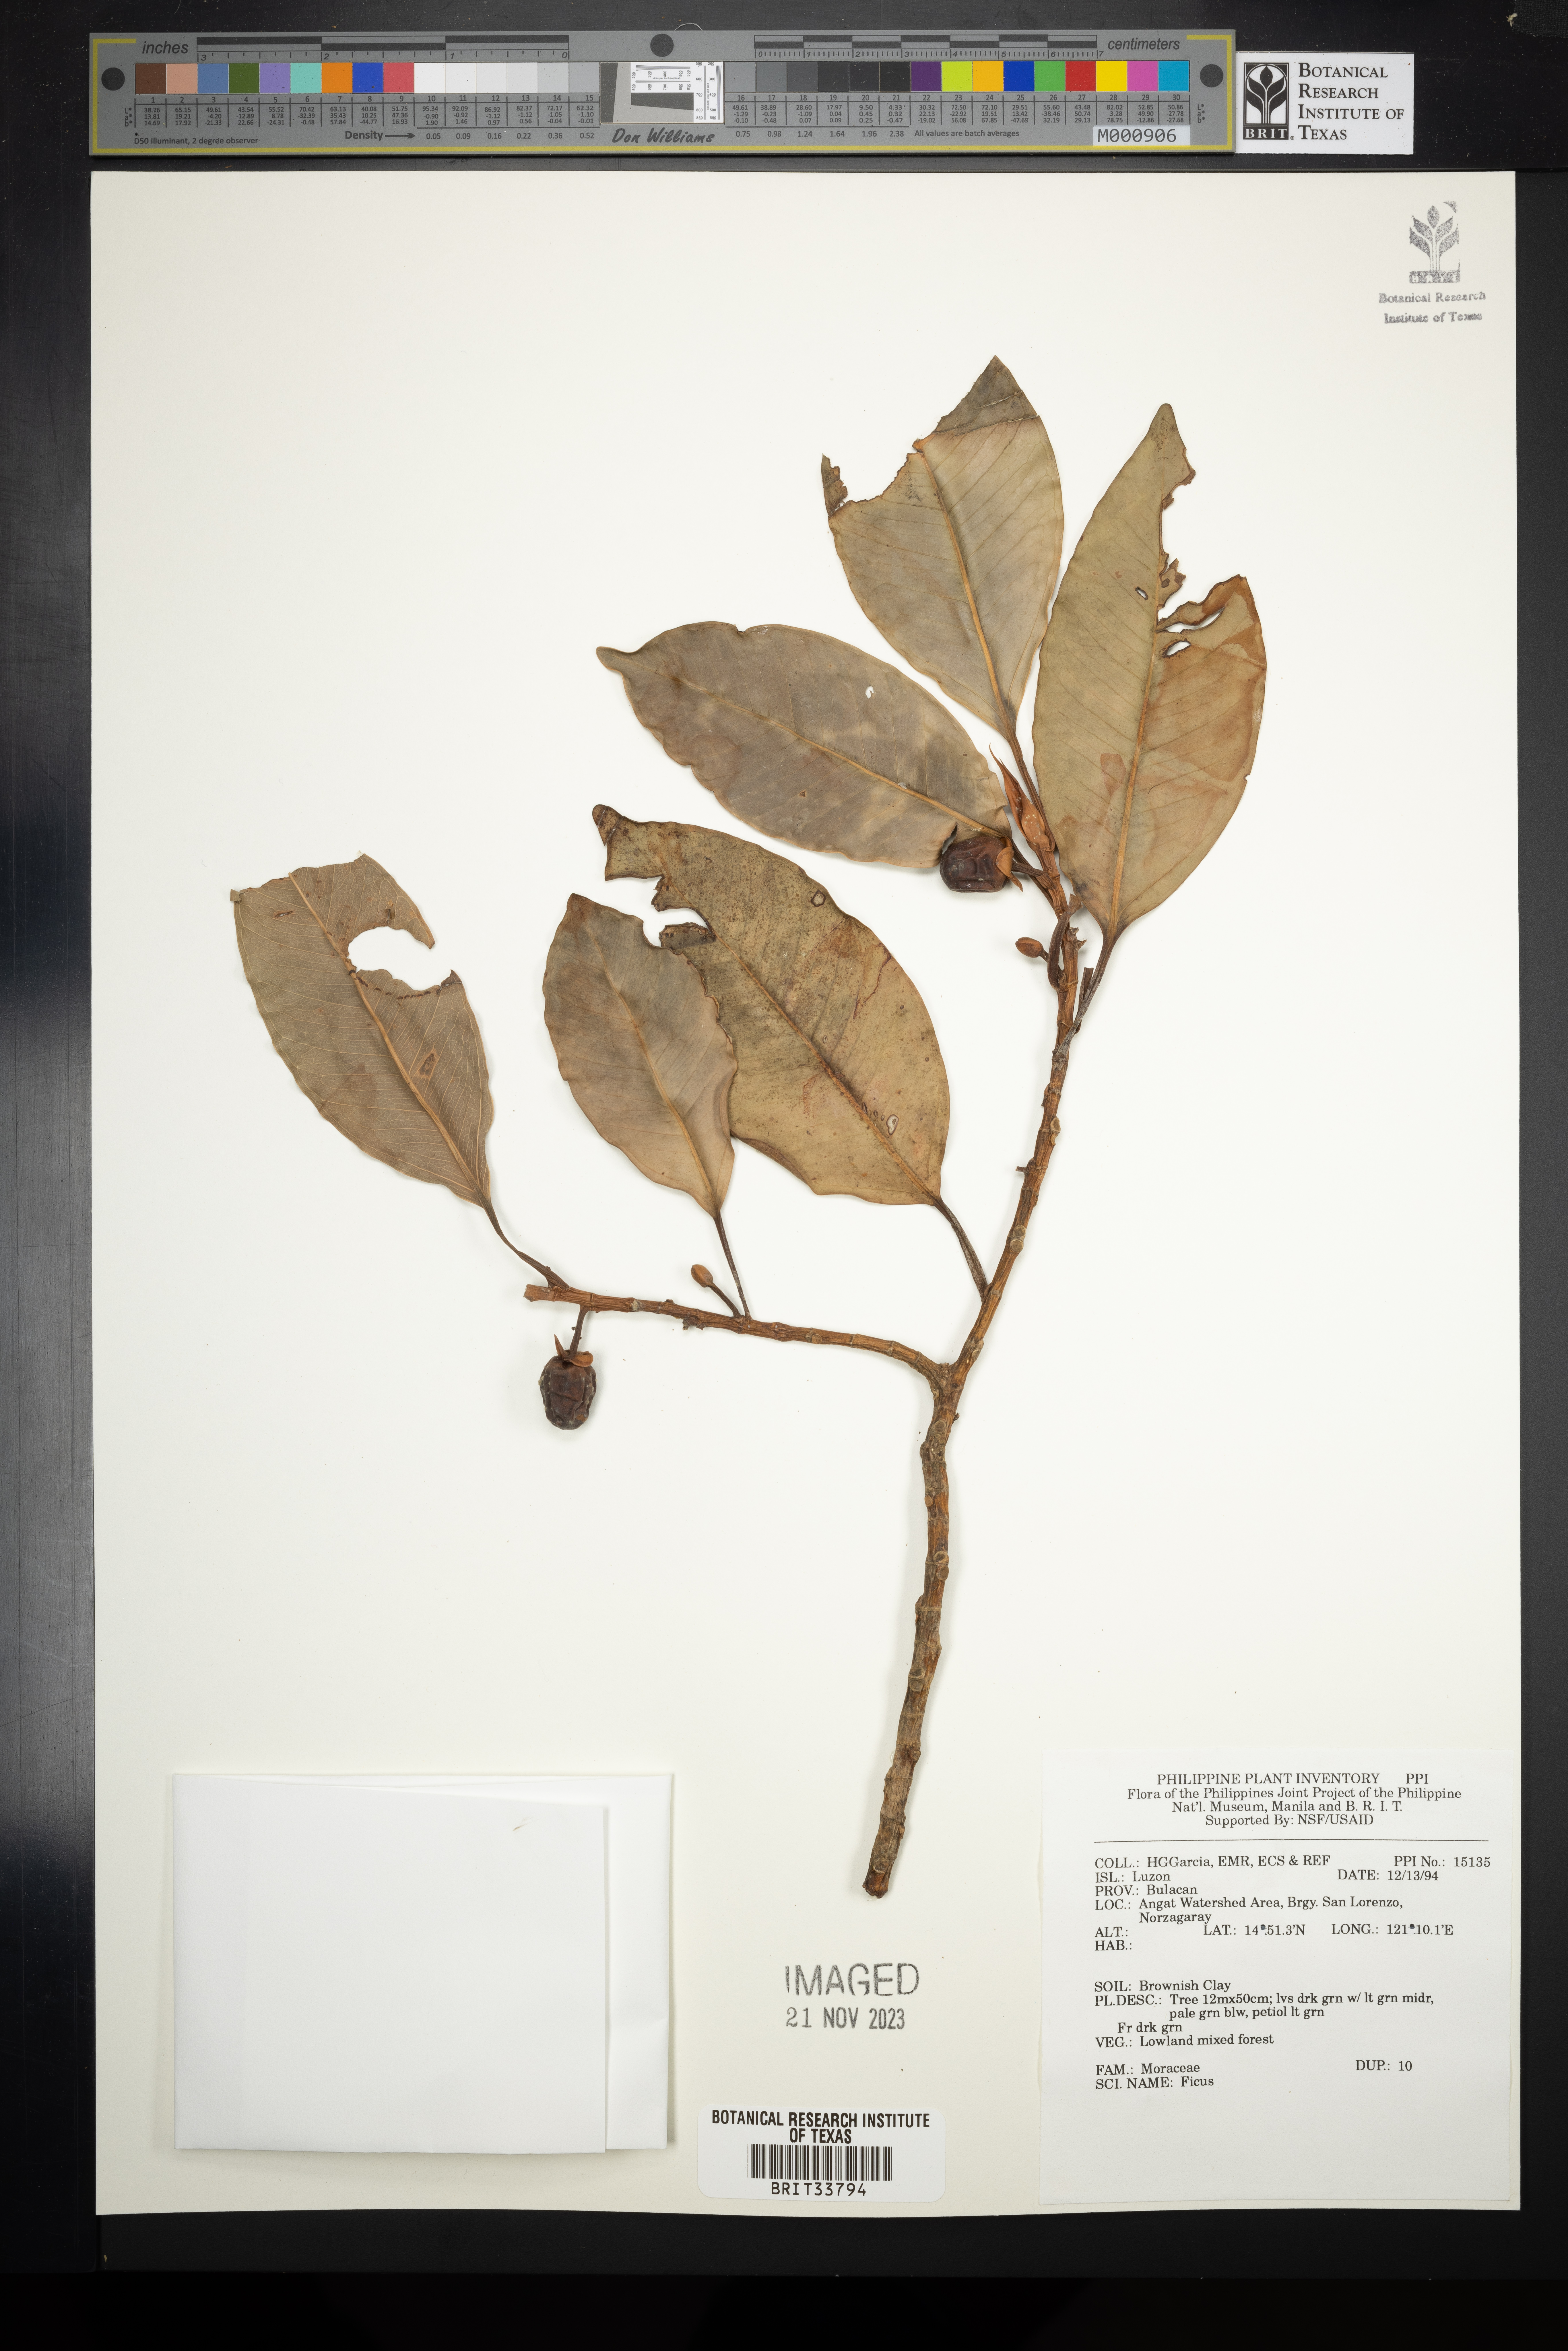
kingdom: Plantae
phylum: Tracheophyta
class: Magnoliopsida
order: Rosales
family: Moraceae
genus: Ficus
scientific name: Ficus
